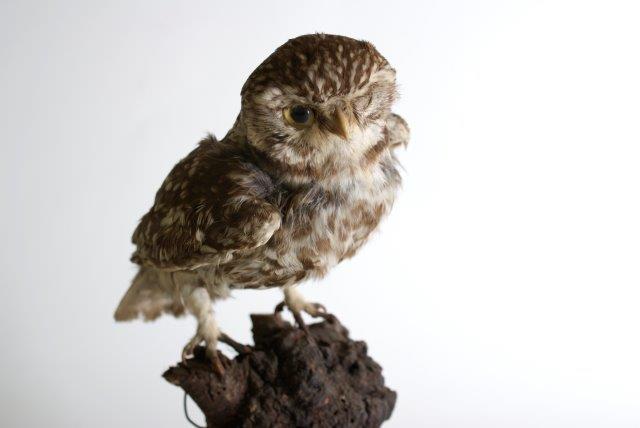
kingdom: Animalia
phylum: Chordata
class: Aves
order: Strigiformes
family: Strigidae
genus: Athene
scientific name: Athene noctua
